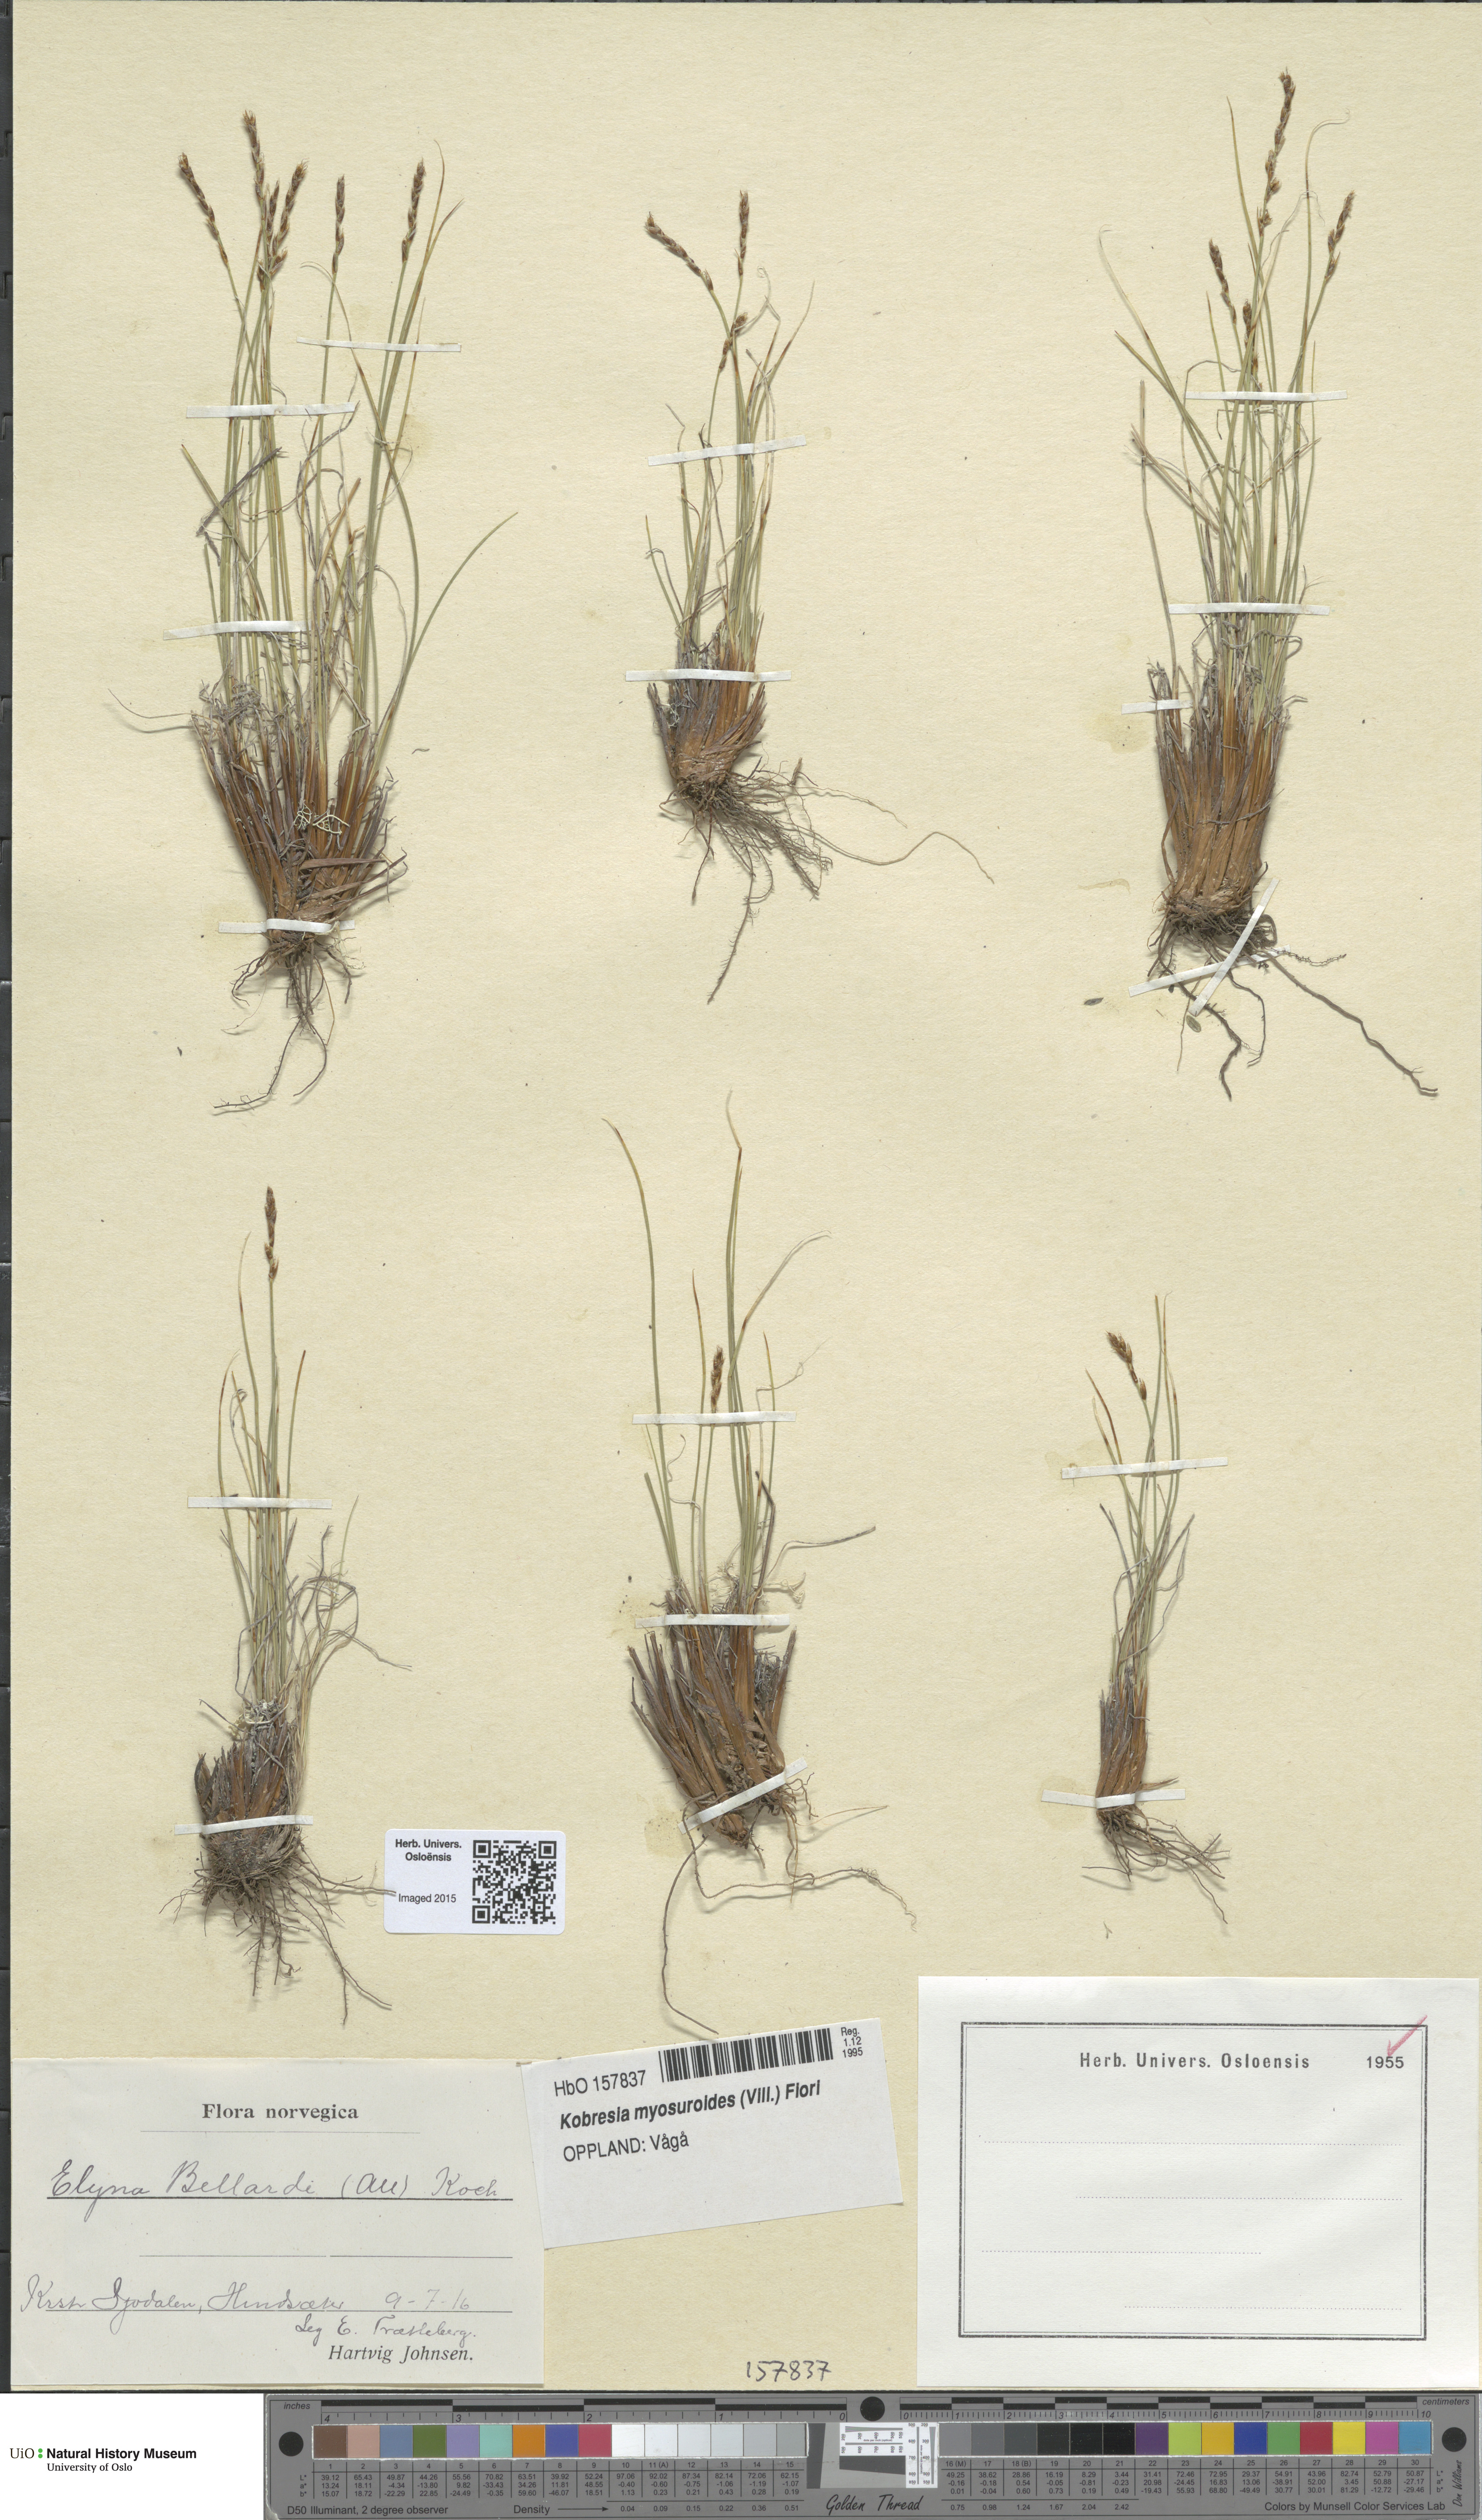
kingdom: Plantae
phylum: Tracheophyta
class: Liliopsida
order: Poales
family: Cyperaceae
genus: Carex
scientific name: Carex myosuroides
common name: Bellard's bog sedge
